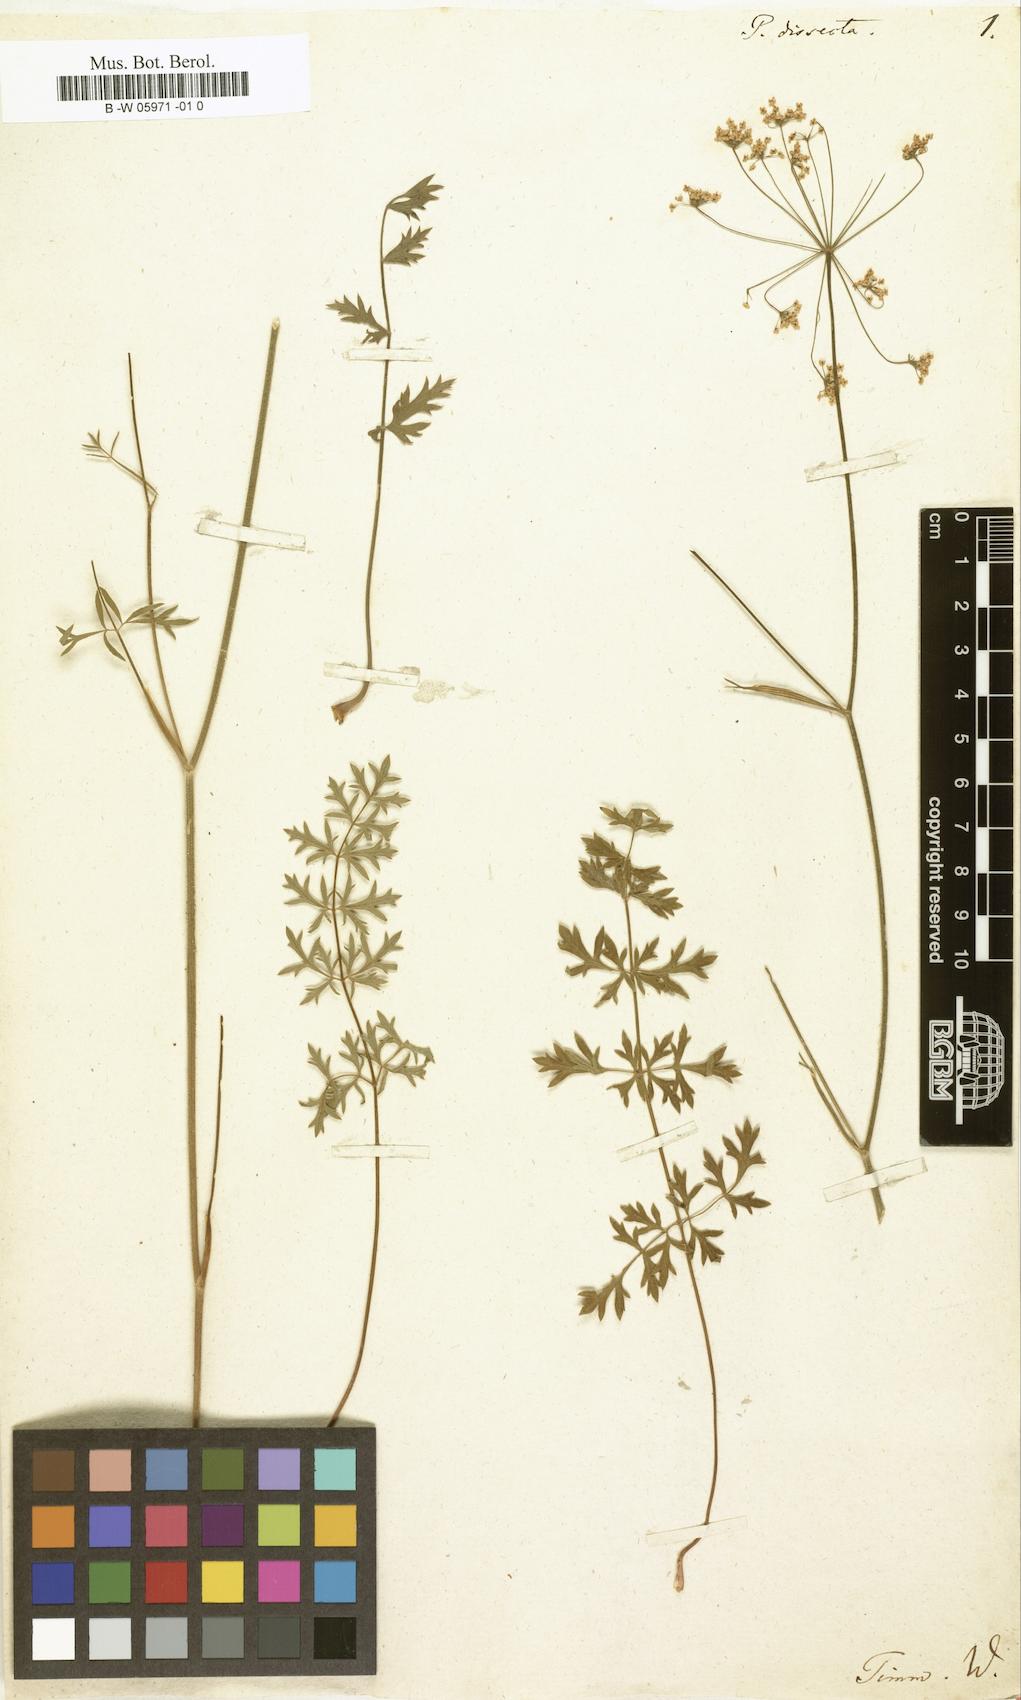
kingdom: Plantae
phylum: Tracheophyta
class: Magnoliopsida
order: Apiales
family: Apiaceae
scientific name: Apiaceae
